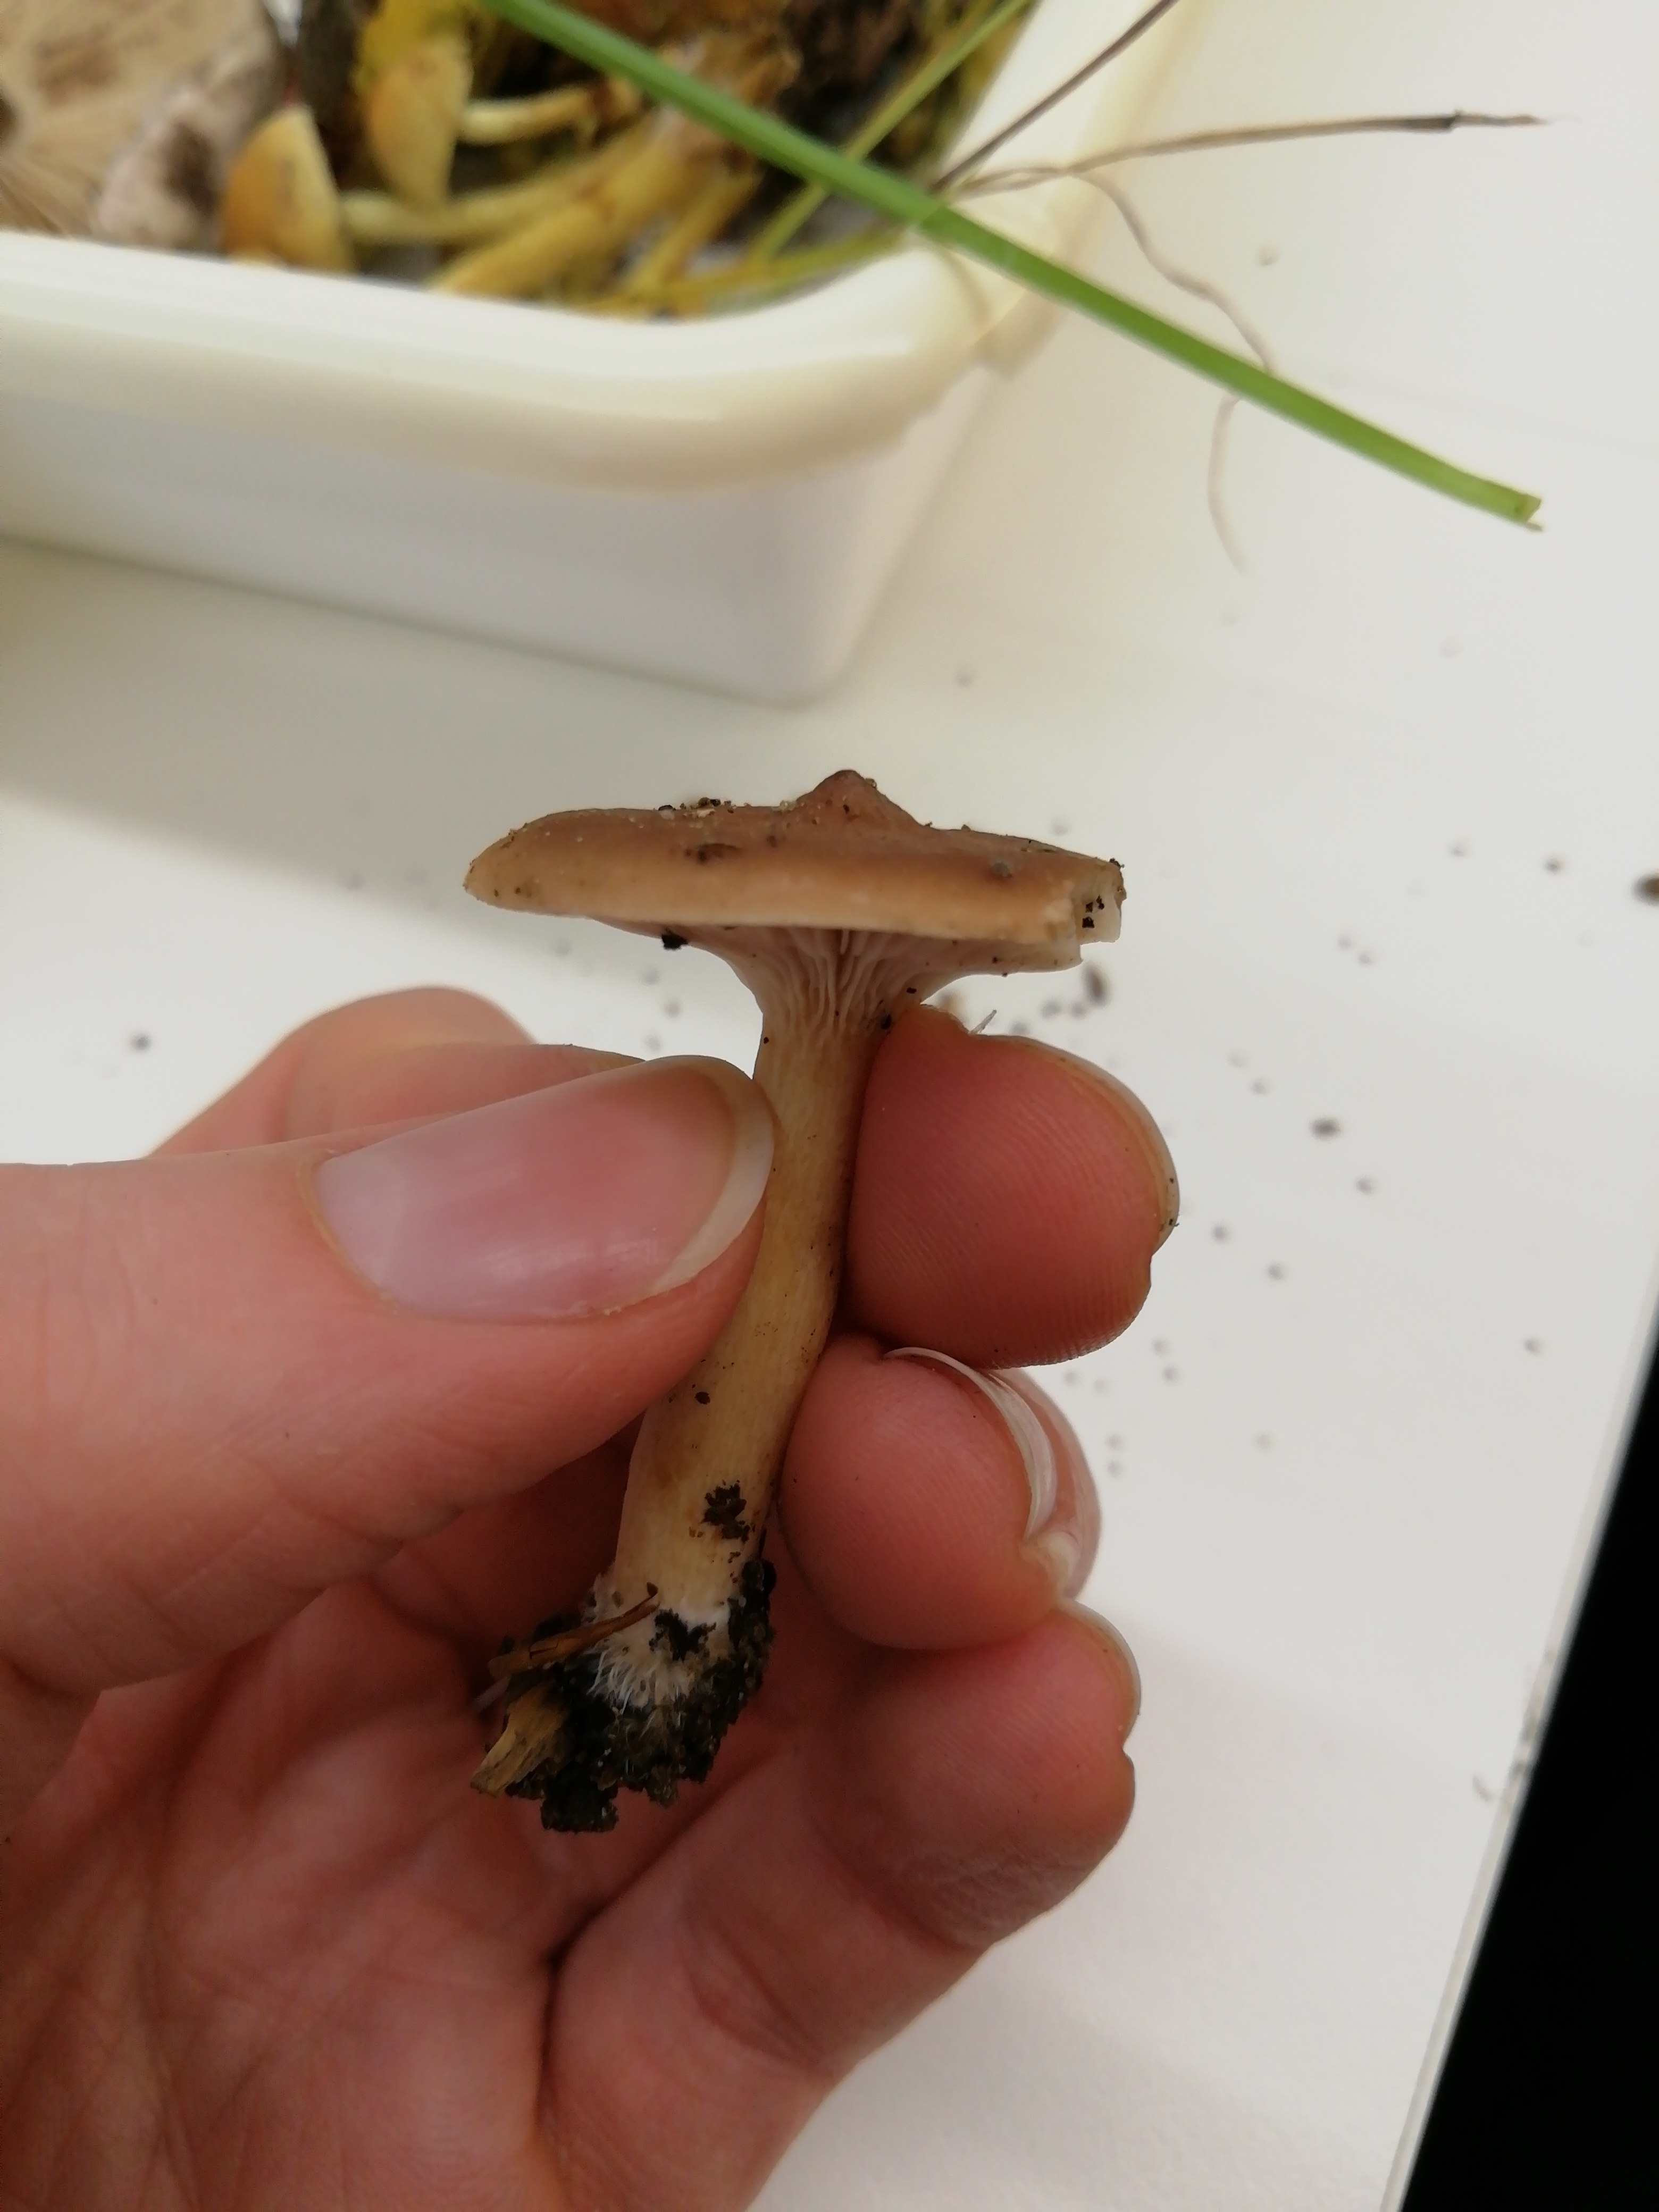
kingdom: Fungi
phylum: Basidiomycota
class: Agaricomycetes
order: Russulales
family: Russulaceae
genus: Lactarius
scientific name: Lactarius
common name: mælkehat
